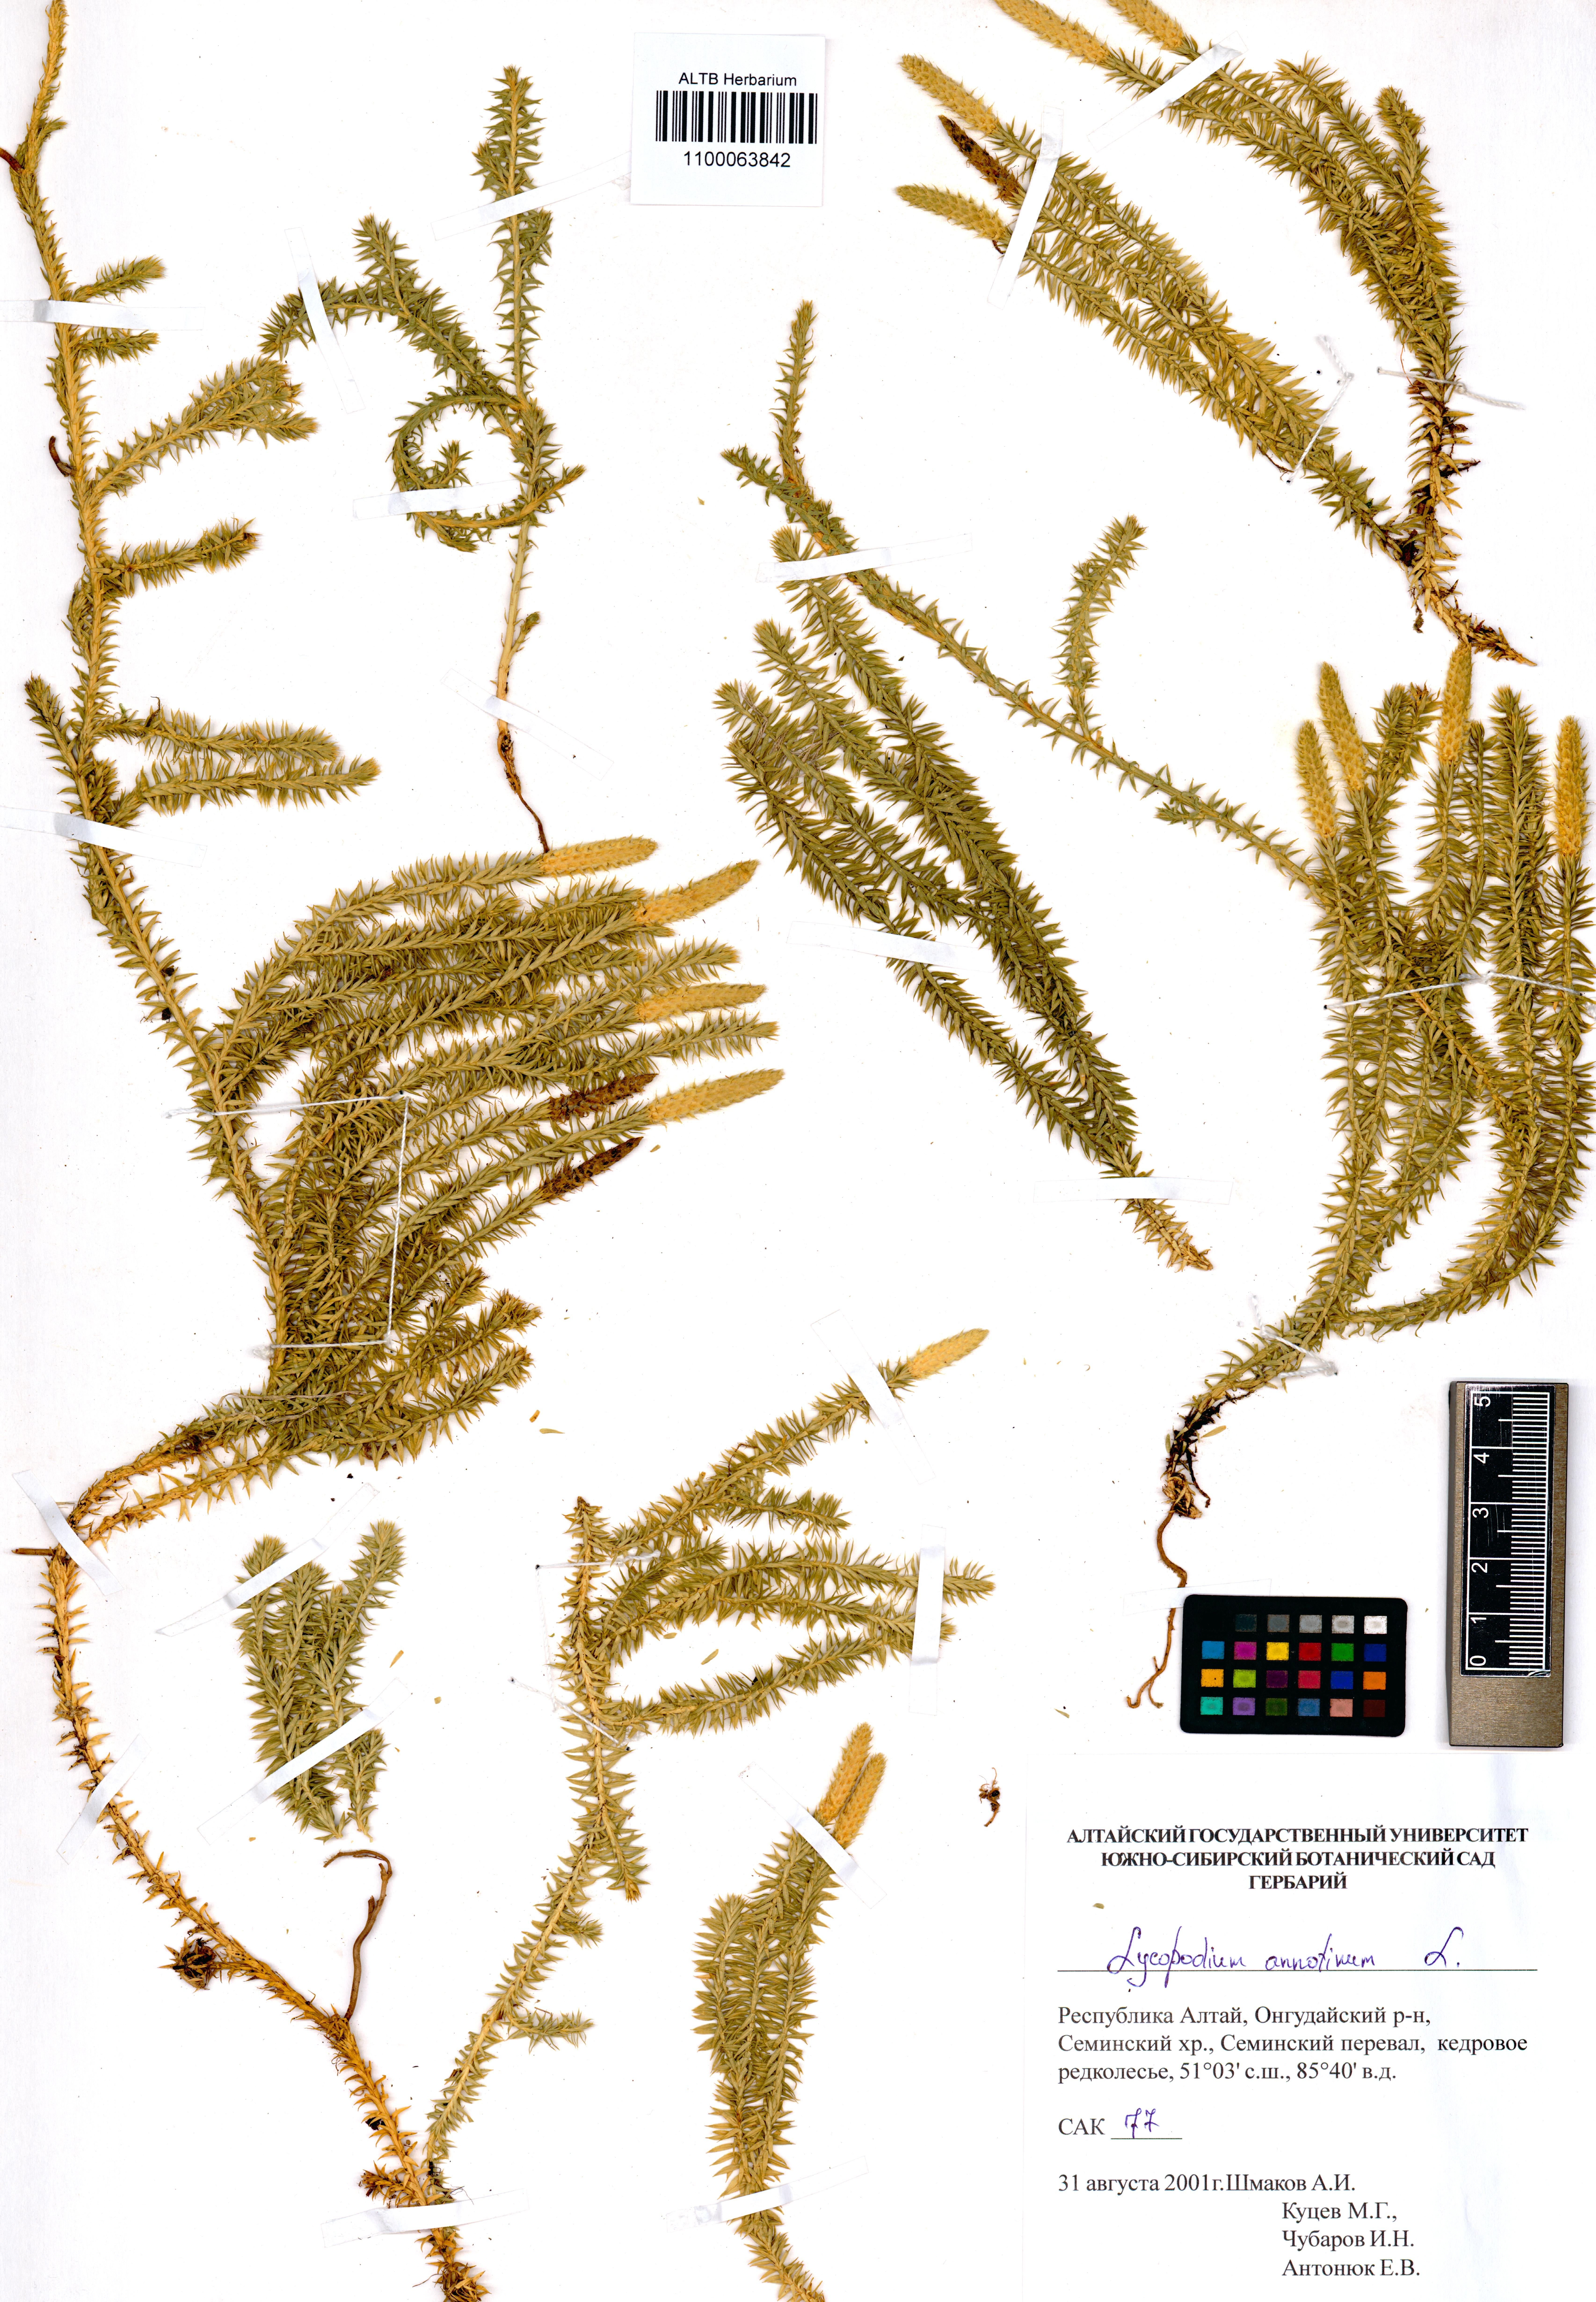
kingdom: Plantae
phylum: Tracheophyta
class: Lycopodiopsida
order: Lycopodiales
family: Lycopodiaceae
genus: Spinulum
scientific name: Spinulum annotinum
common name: Interrupted club-moss
